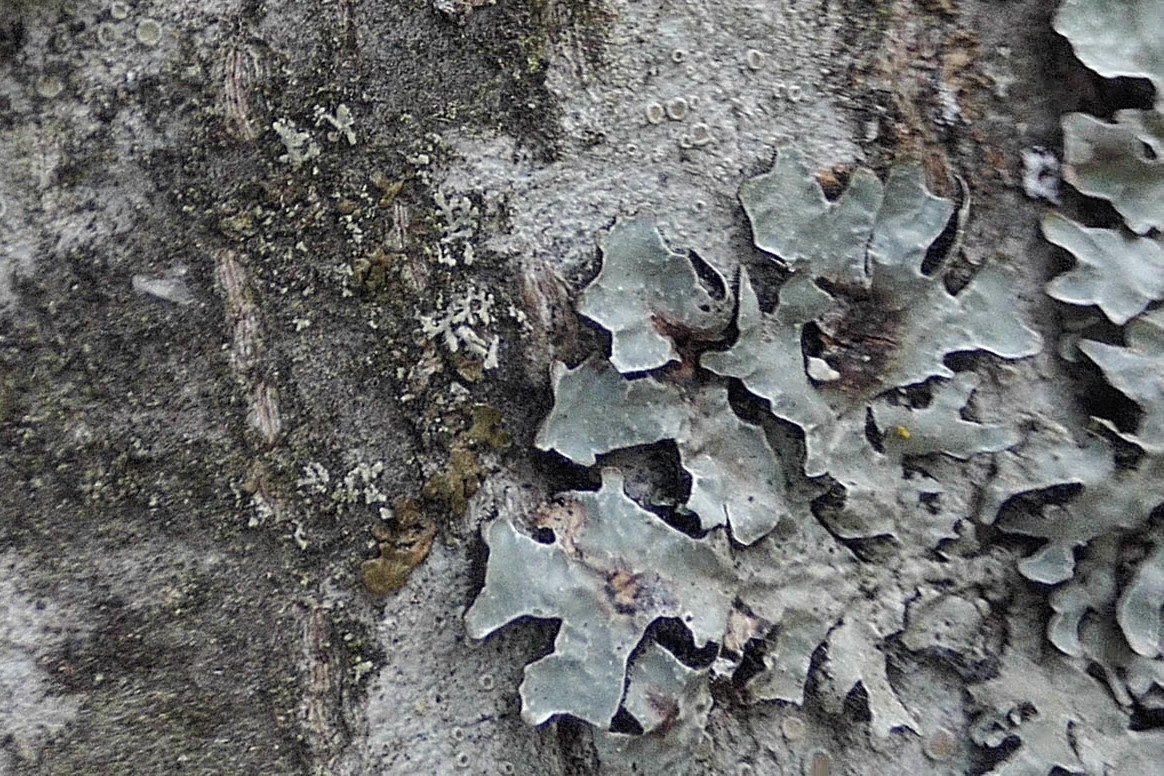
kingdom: Fungi
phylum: Ascomycota
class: Lecanoromycetes
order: Lecanorales
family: Parmeliaceae
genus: Parmelia
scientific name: Parmelia sulcata
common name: rynket skållav
